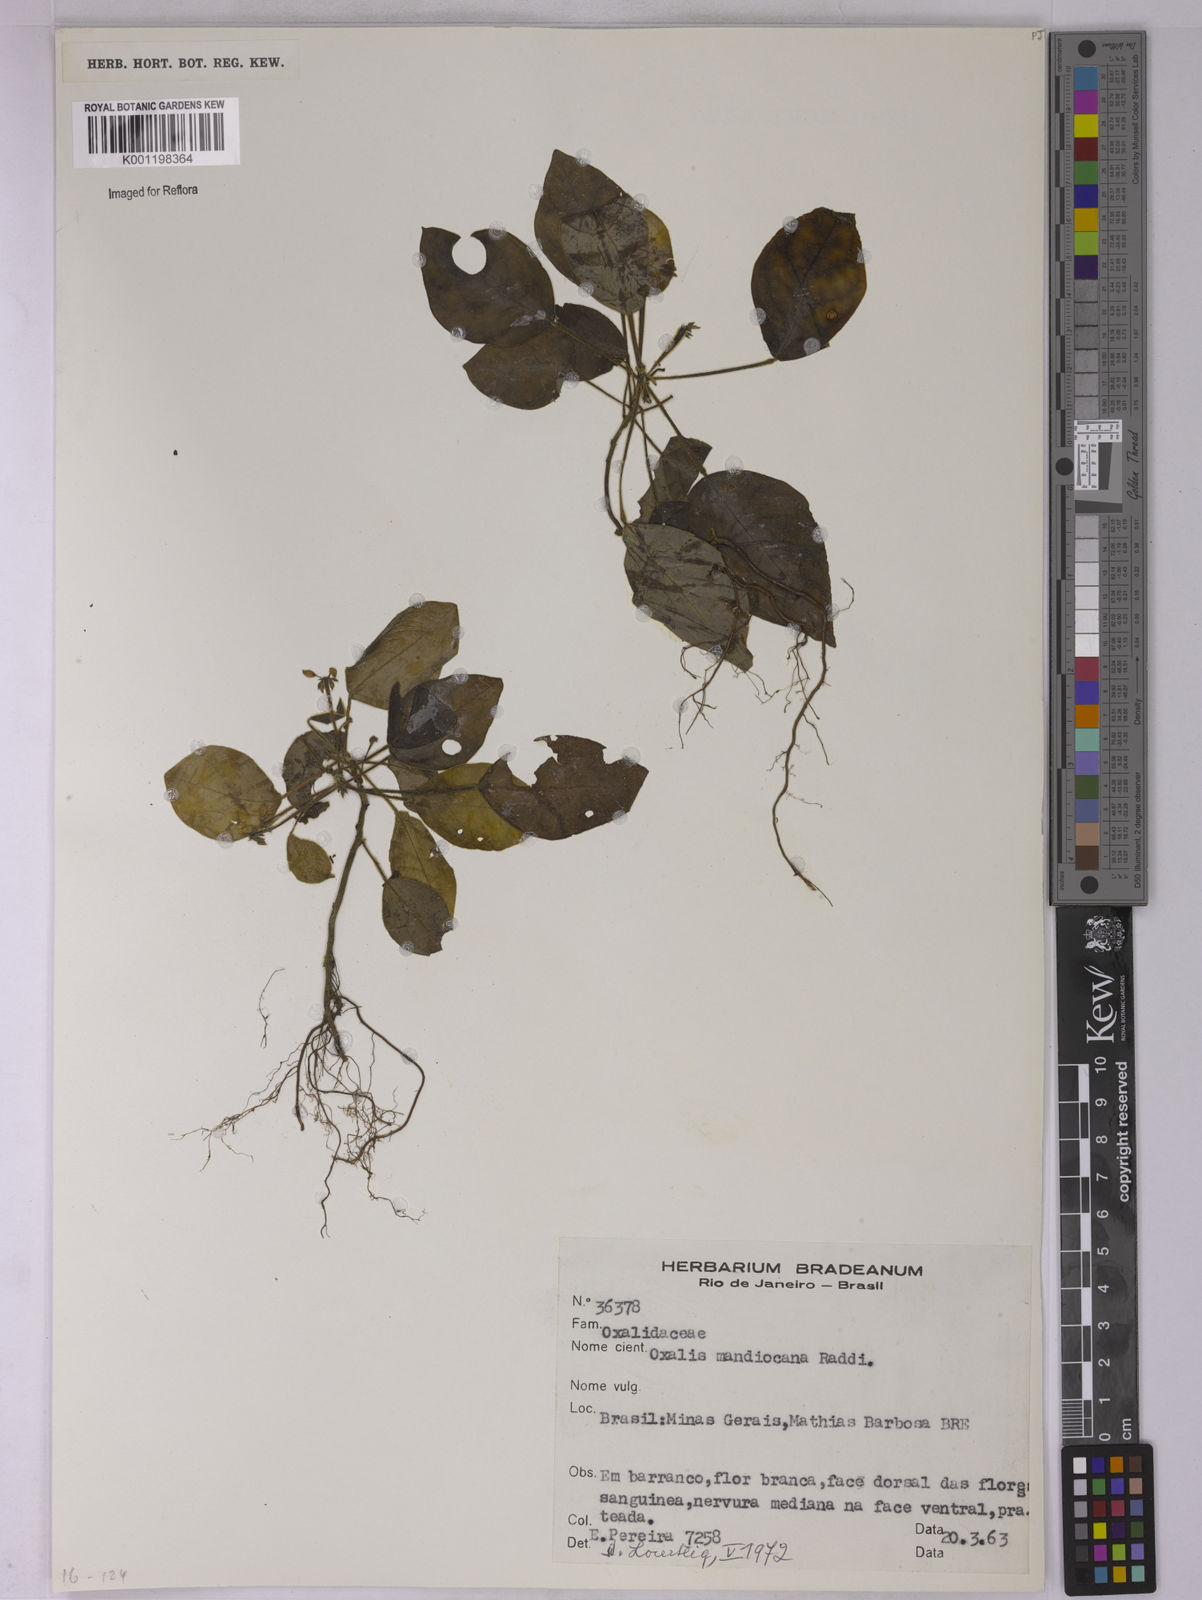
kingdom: Plantae
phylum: Tracheophyta
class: Magnoliopsida
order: Oxalidales
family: Oxalidaceae
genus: Oxalis
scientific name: Oxalis mandioccana
